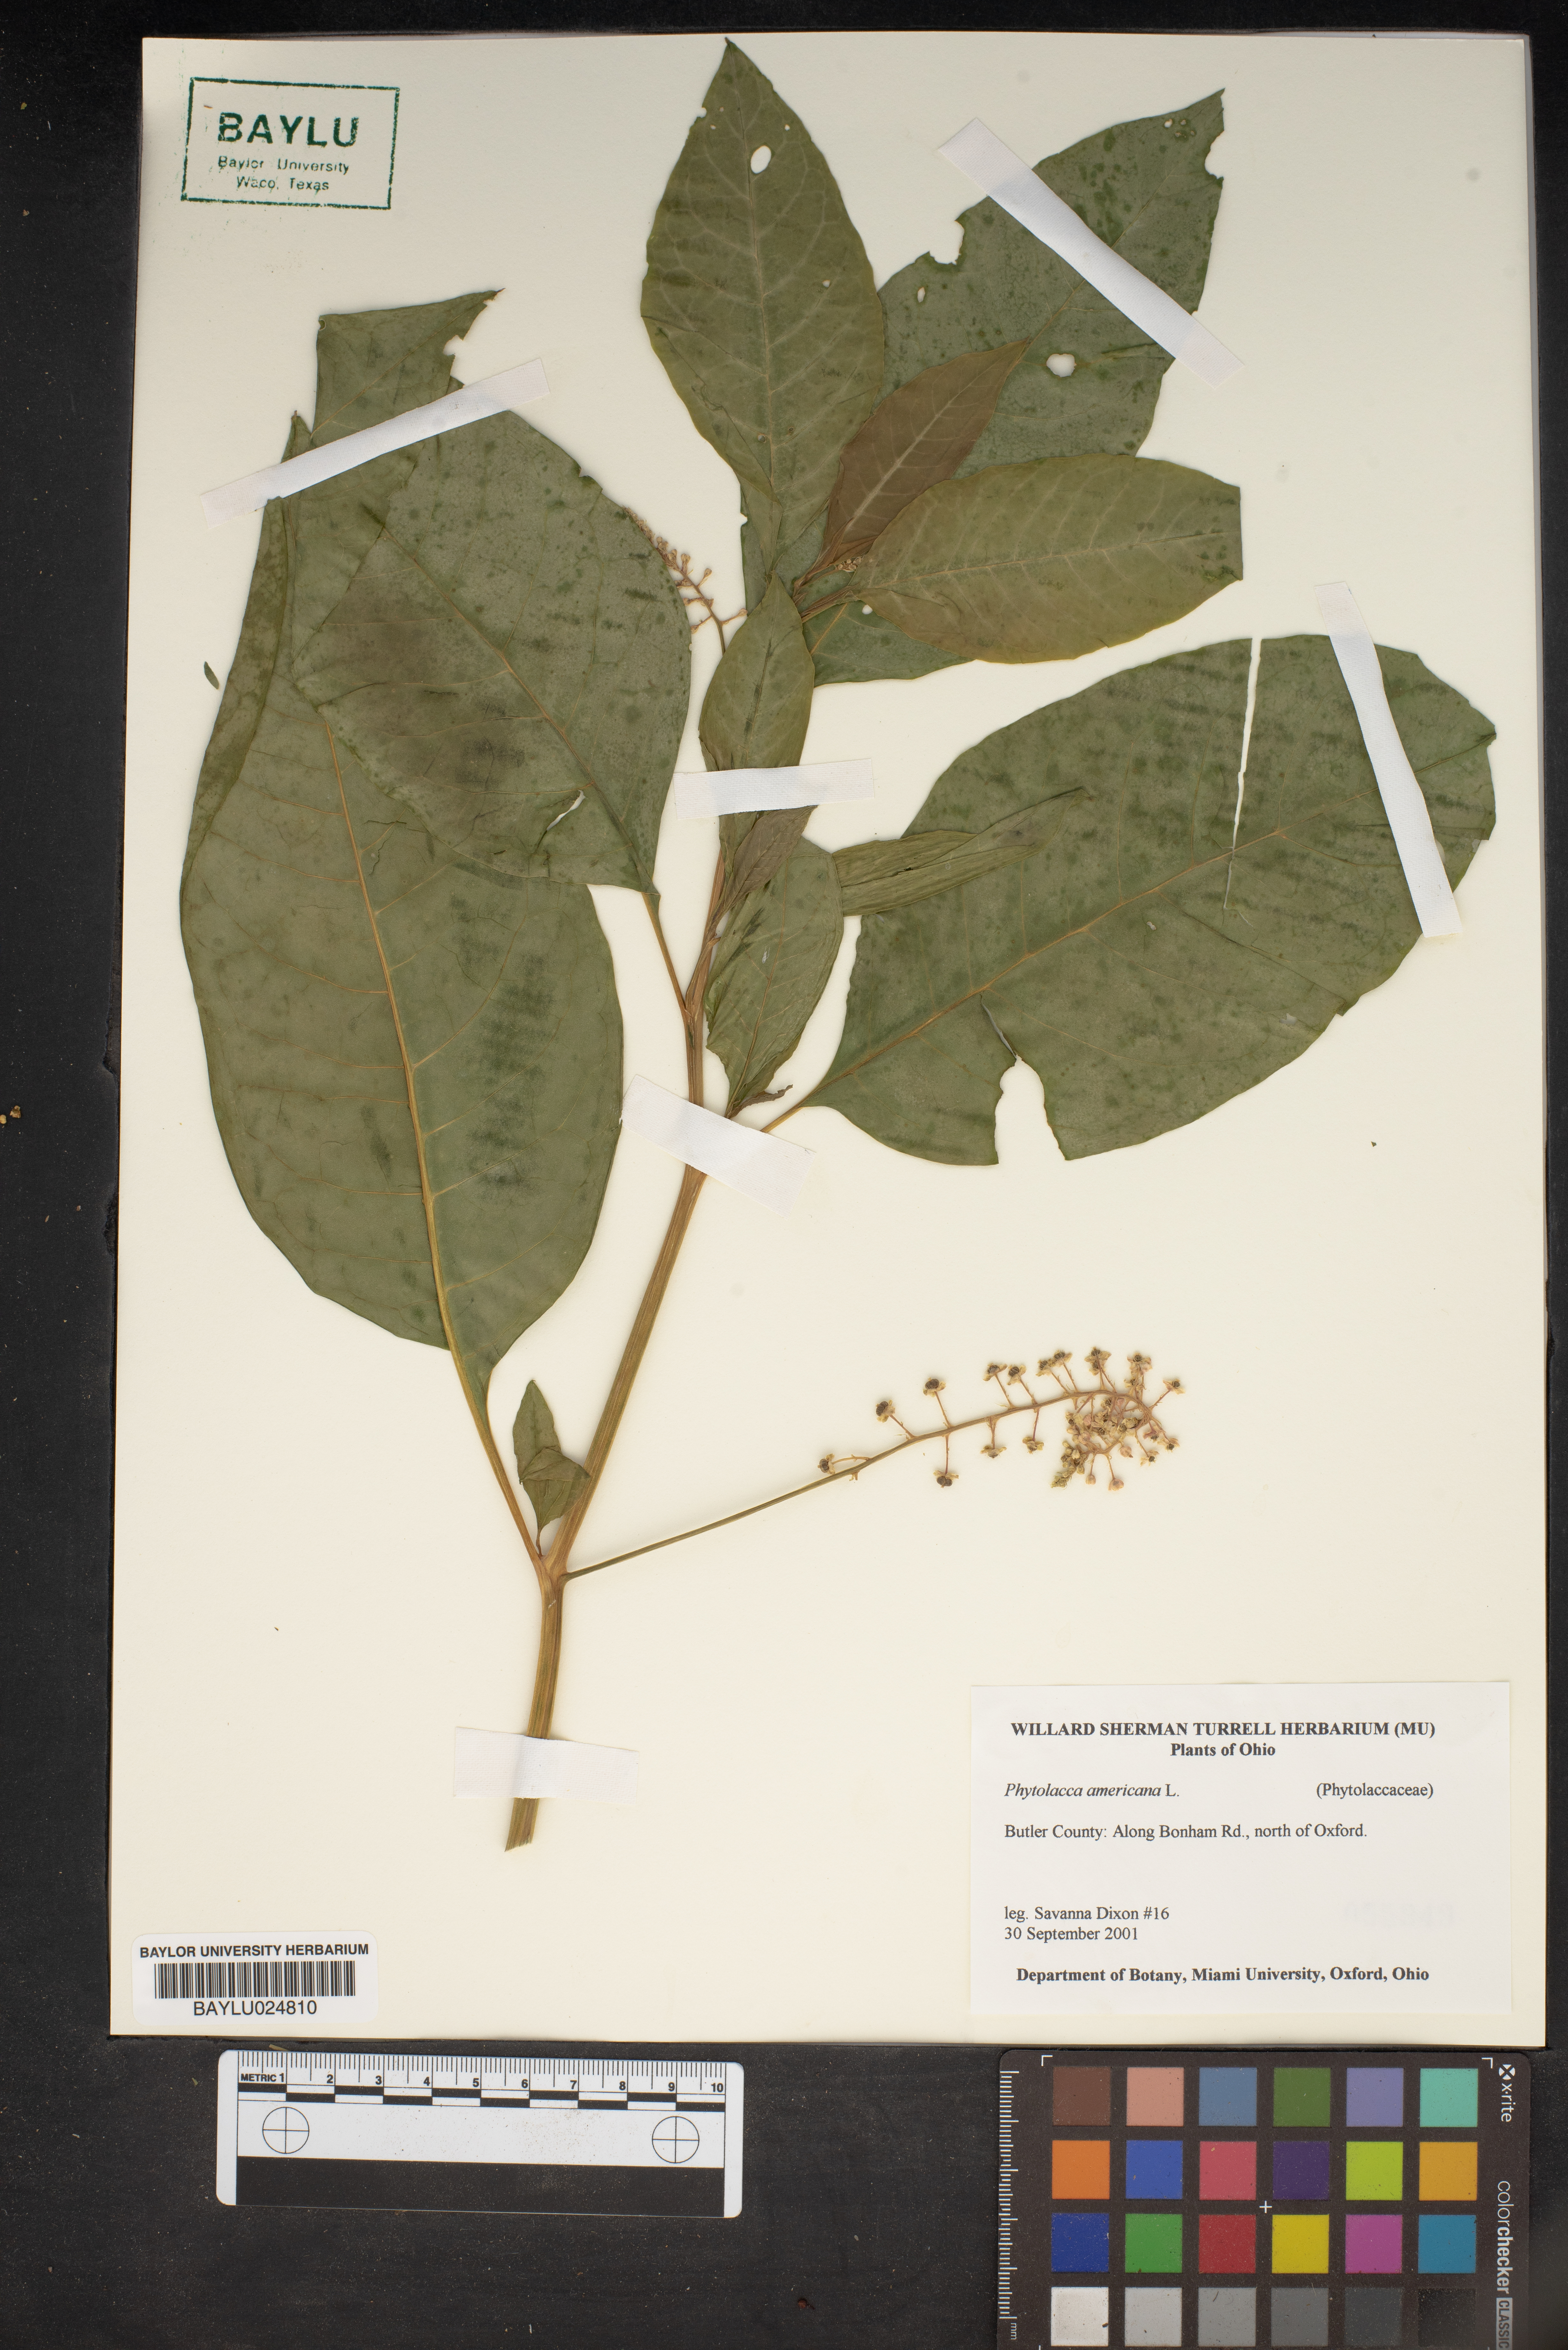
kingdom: Plantae
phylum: Tracheophyta
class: Magnoliopsida
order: Caryophyllales
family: Phytolaccaceae
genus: Phytolacca
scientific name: Phytolacca americana
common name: American pokeweed
